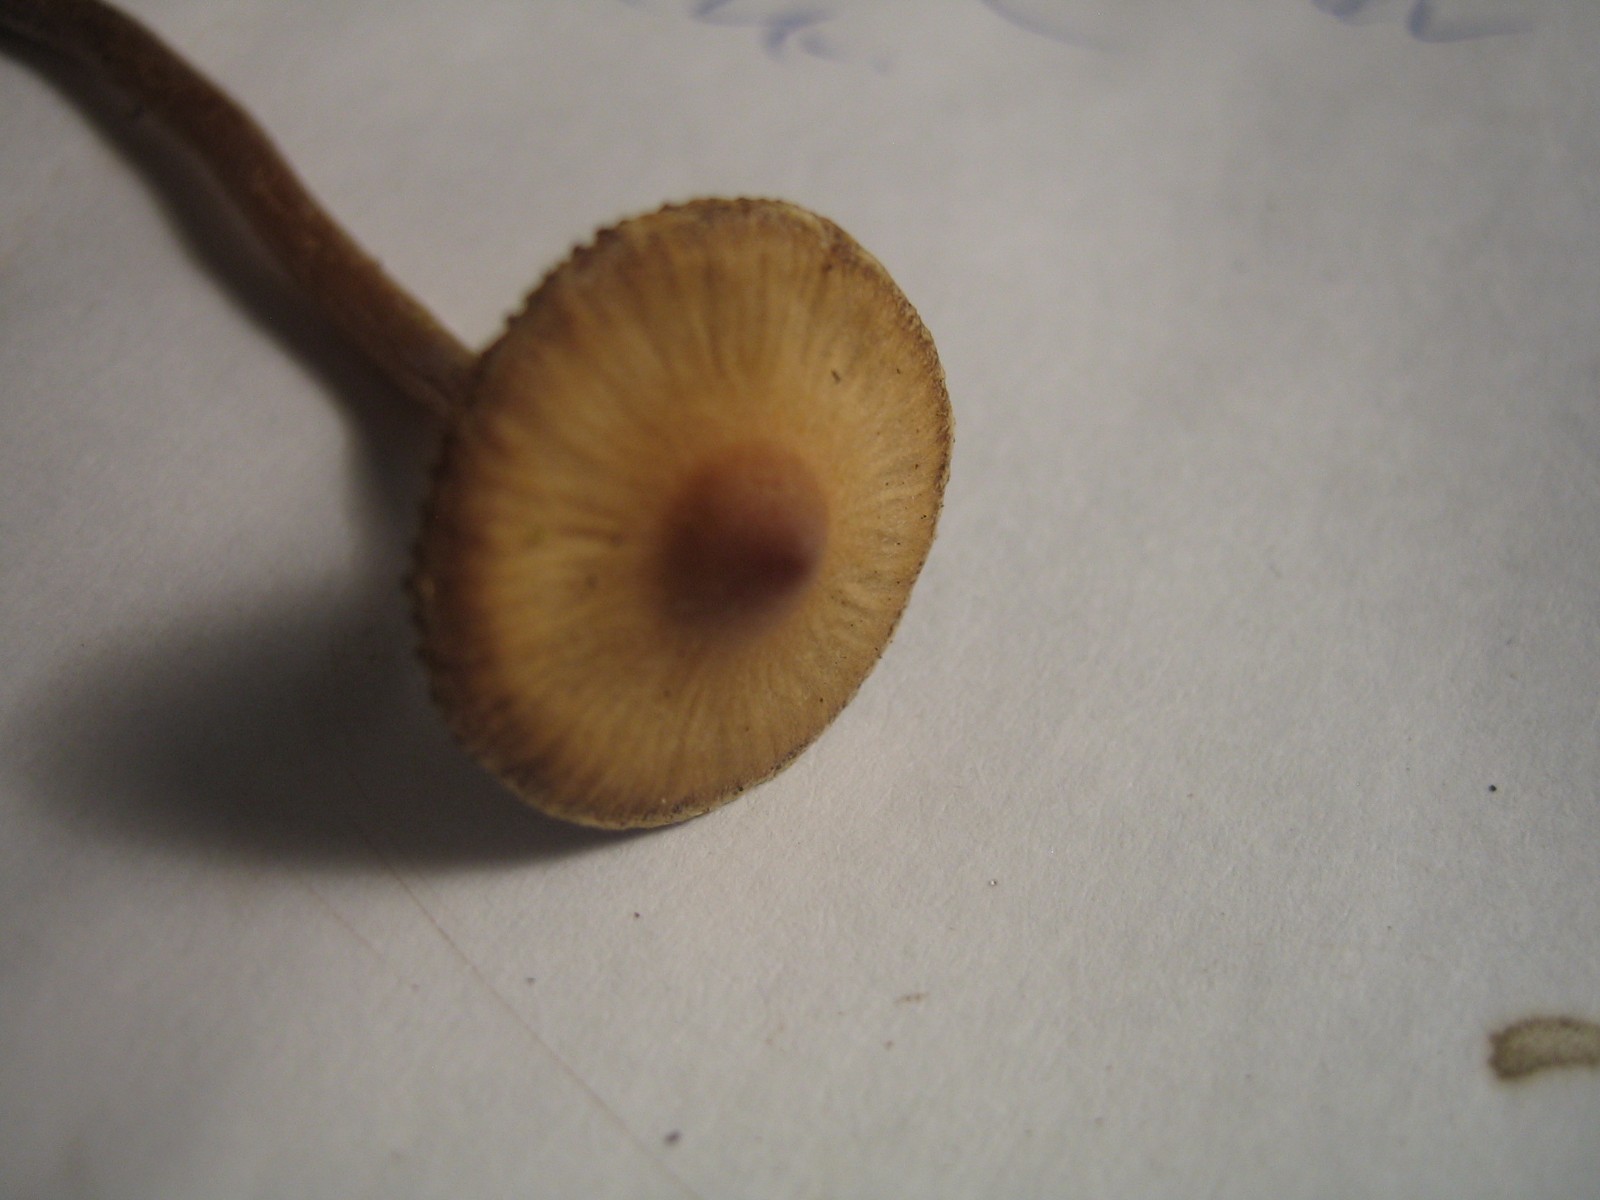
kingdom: Fungi
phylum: Basidiomycota
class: Agaricomycetes
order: Agaricales
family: Cortinariaceae
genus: Cortinarius
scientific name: Cortinarius
